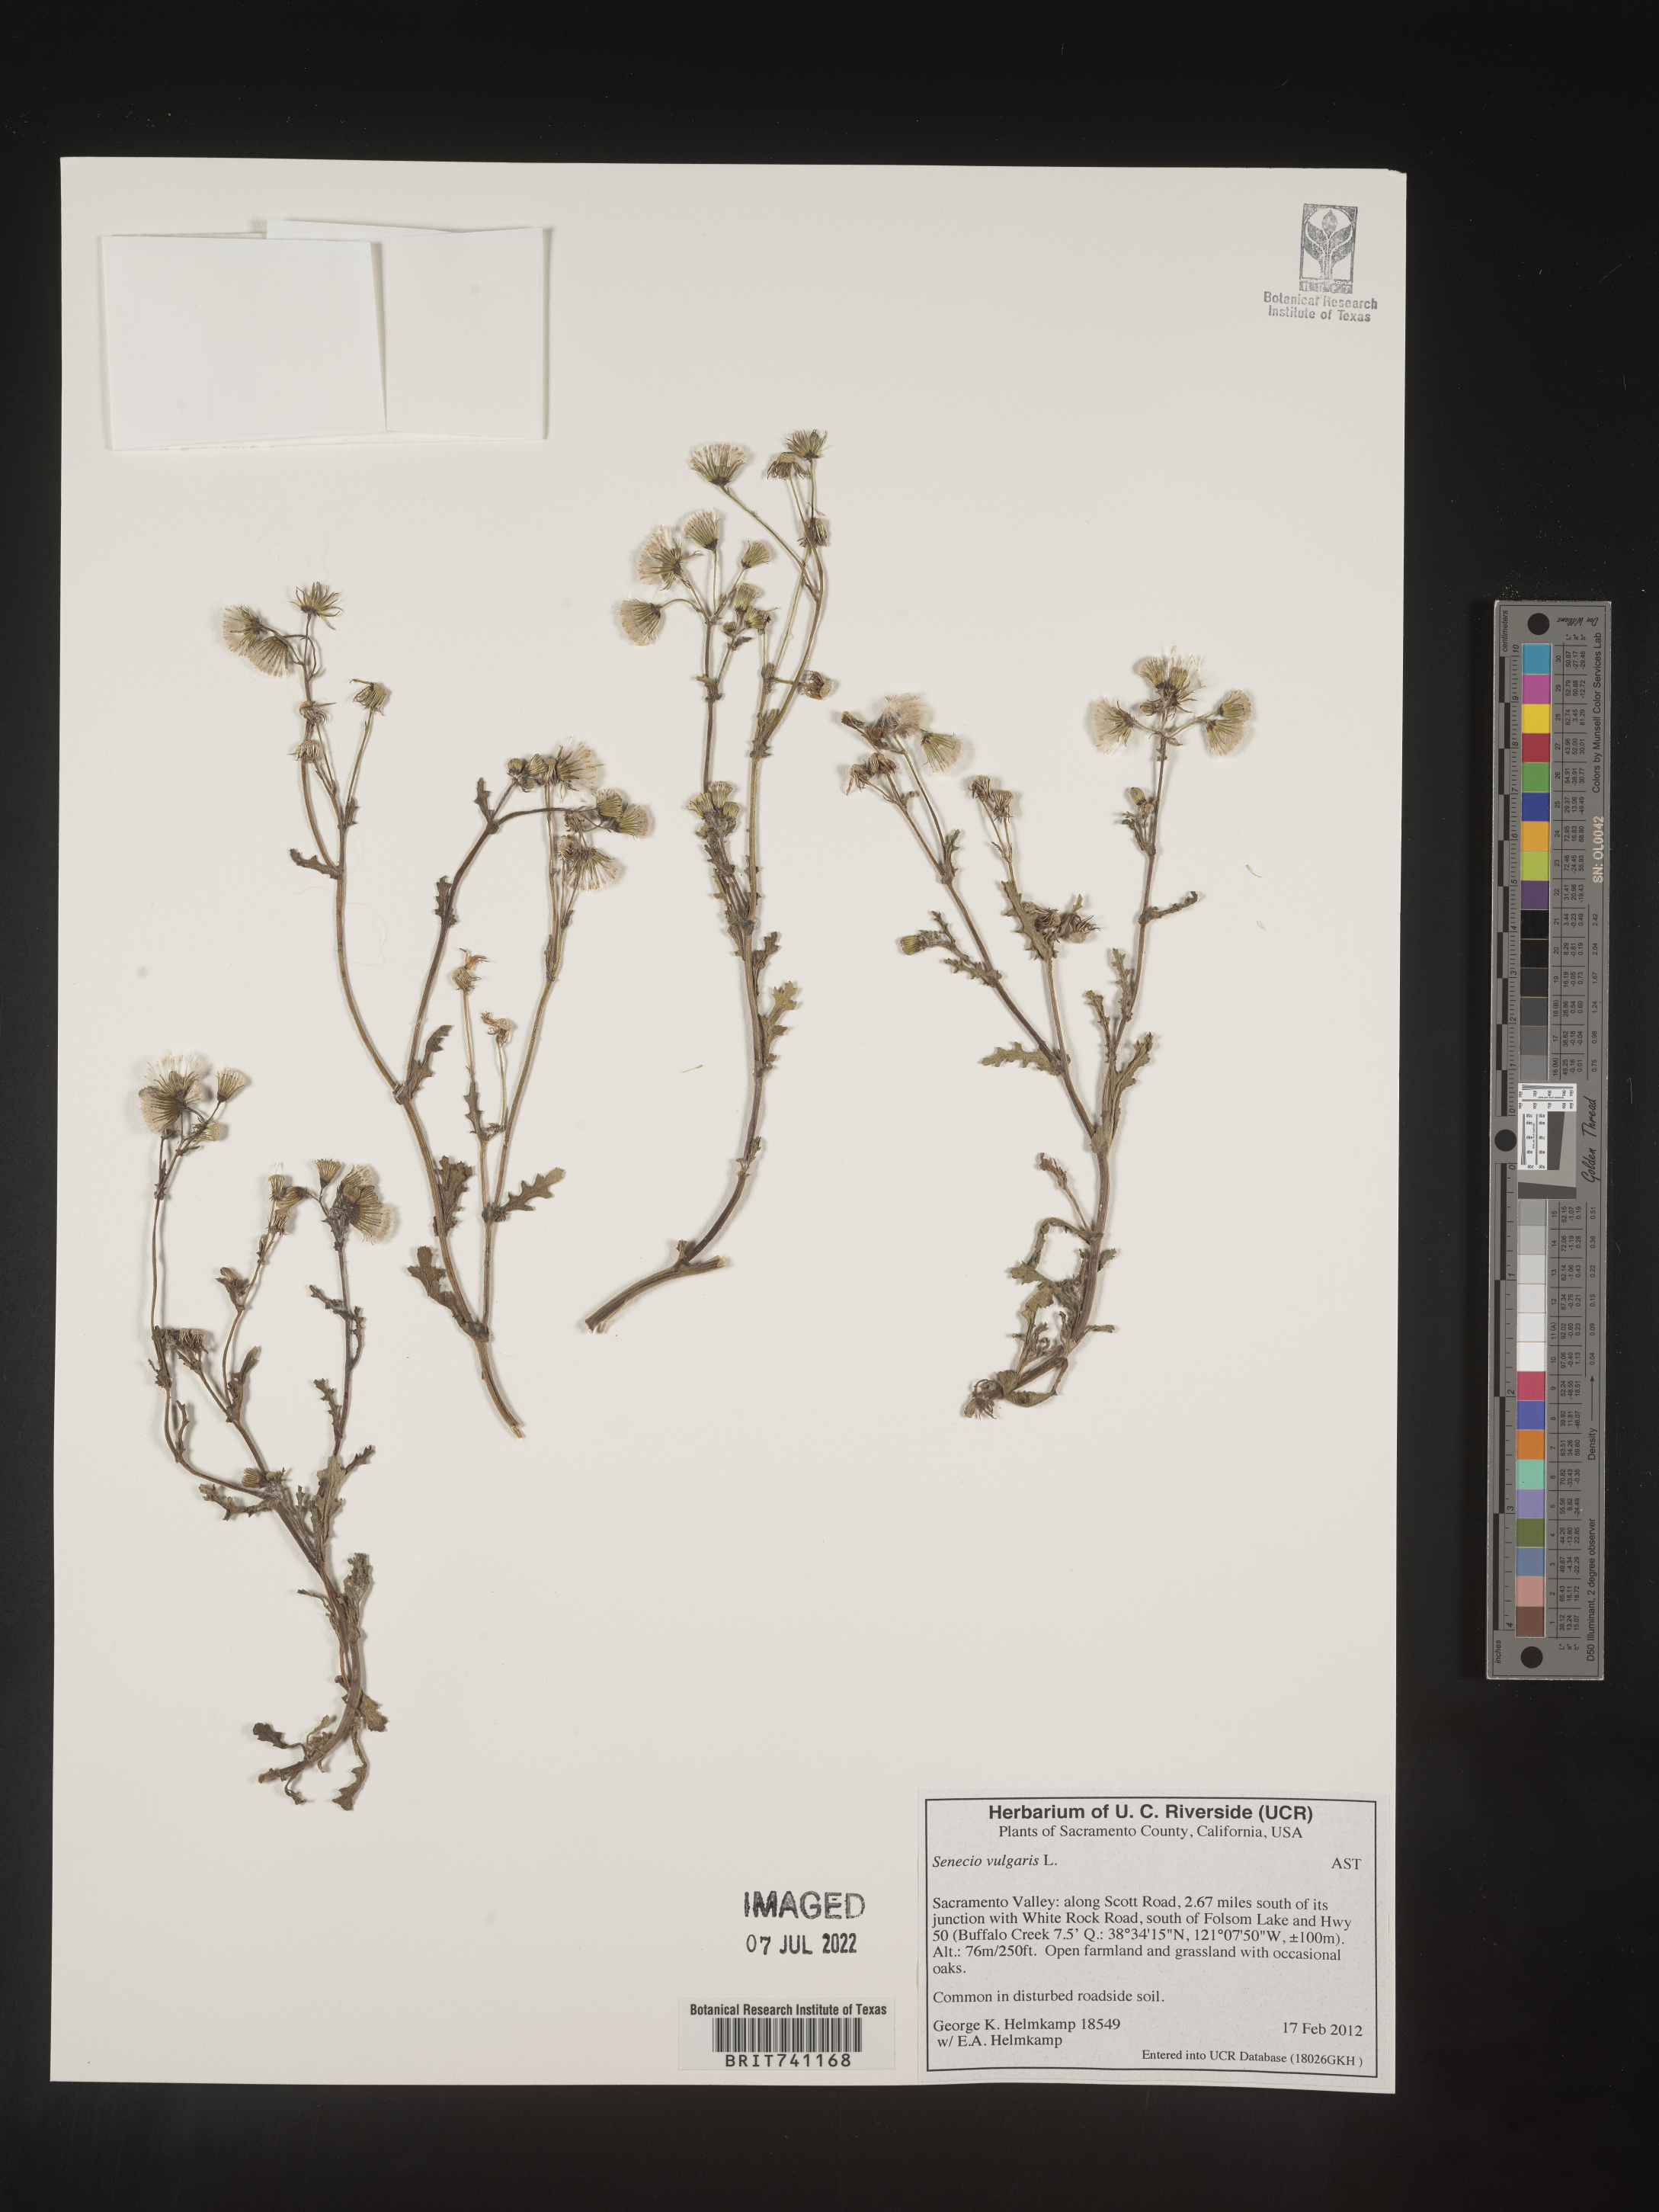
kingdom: Plantae
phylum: Tracheophyta
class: Magnoliopsida
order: Asterales
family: Asteraceae
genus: Senecio
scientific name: Senecio vulgaris
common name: Old-man-in-the-spring
